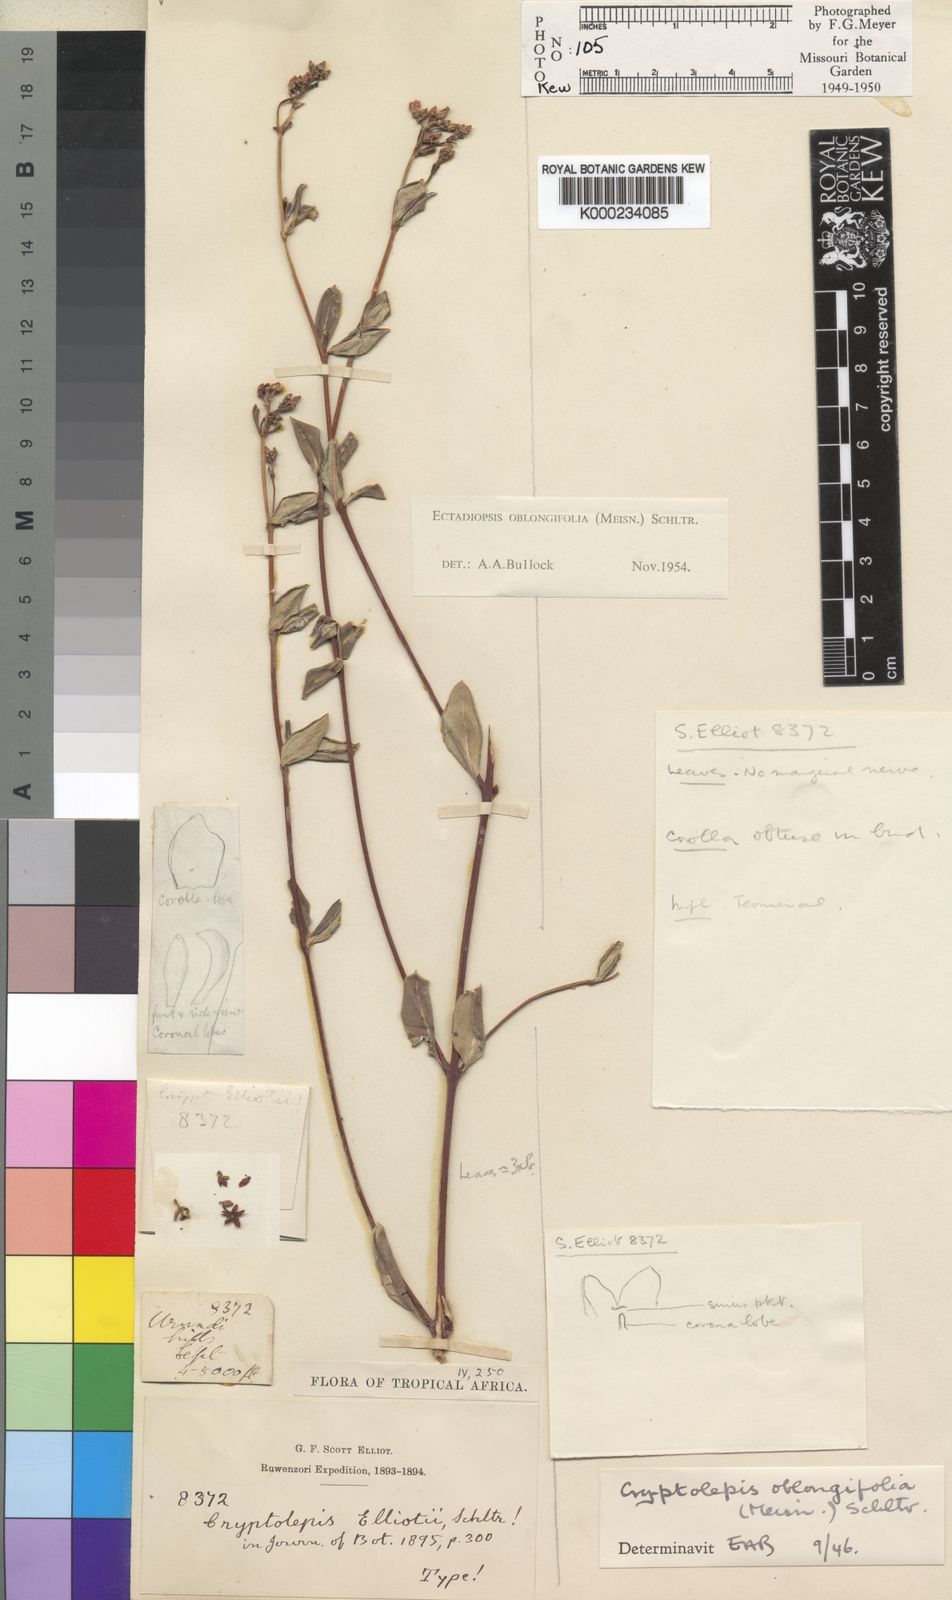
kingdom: Plantae
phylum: Tracheophyta
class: Magnoliopsida
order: Gentianales
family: Apocynaceae
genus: Cryptolepis
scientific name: Cryptolepis oblongifolia
